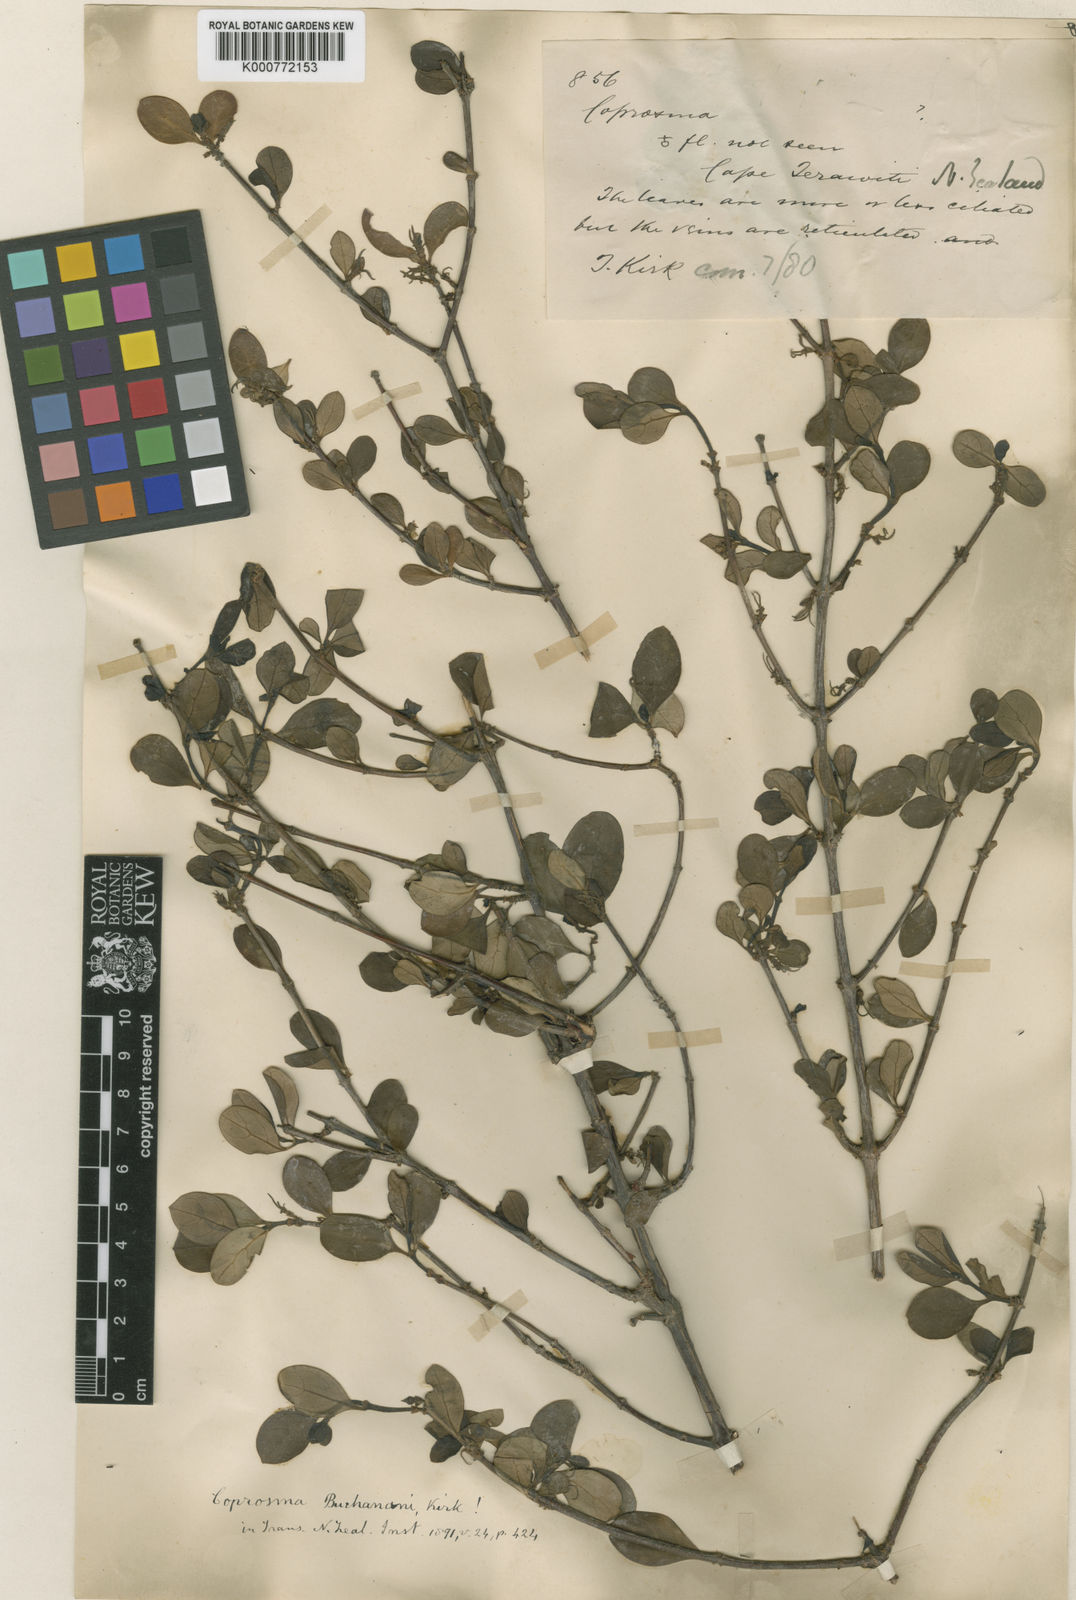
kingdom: Plantae
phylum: Tracheophyta
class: Magnoliopsida
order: Gentianales
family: Rubiaceae
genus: Coprosma
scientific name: Coprosma buchananii
